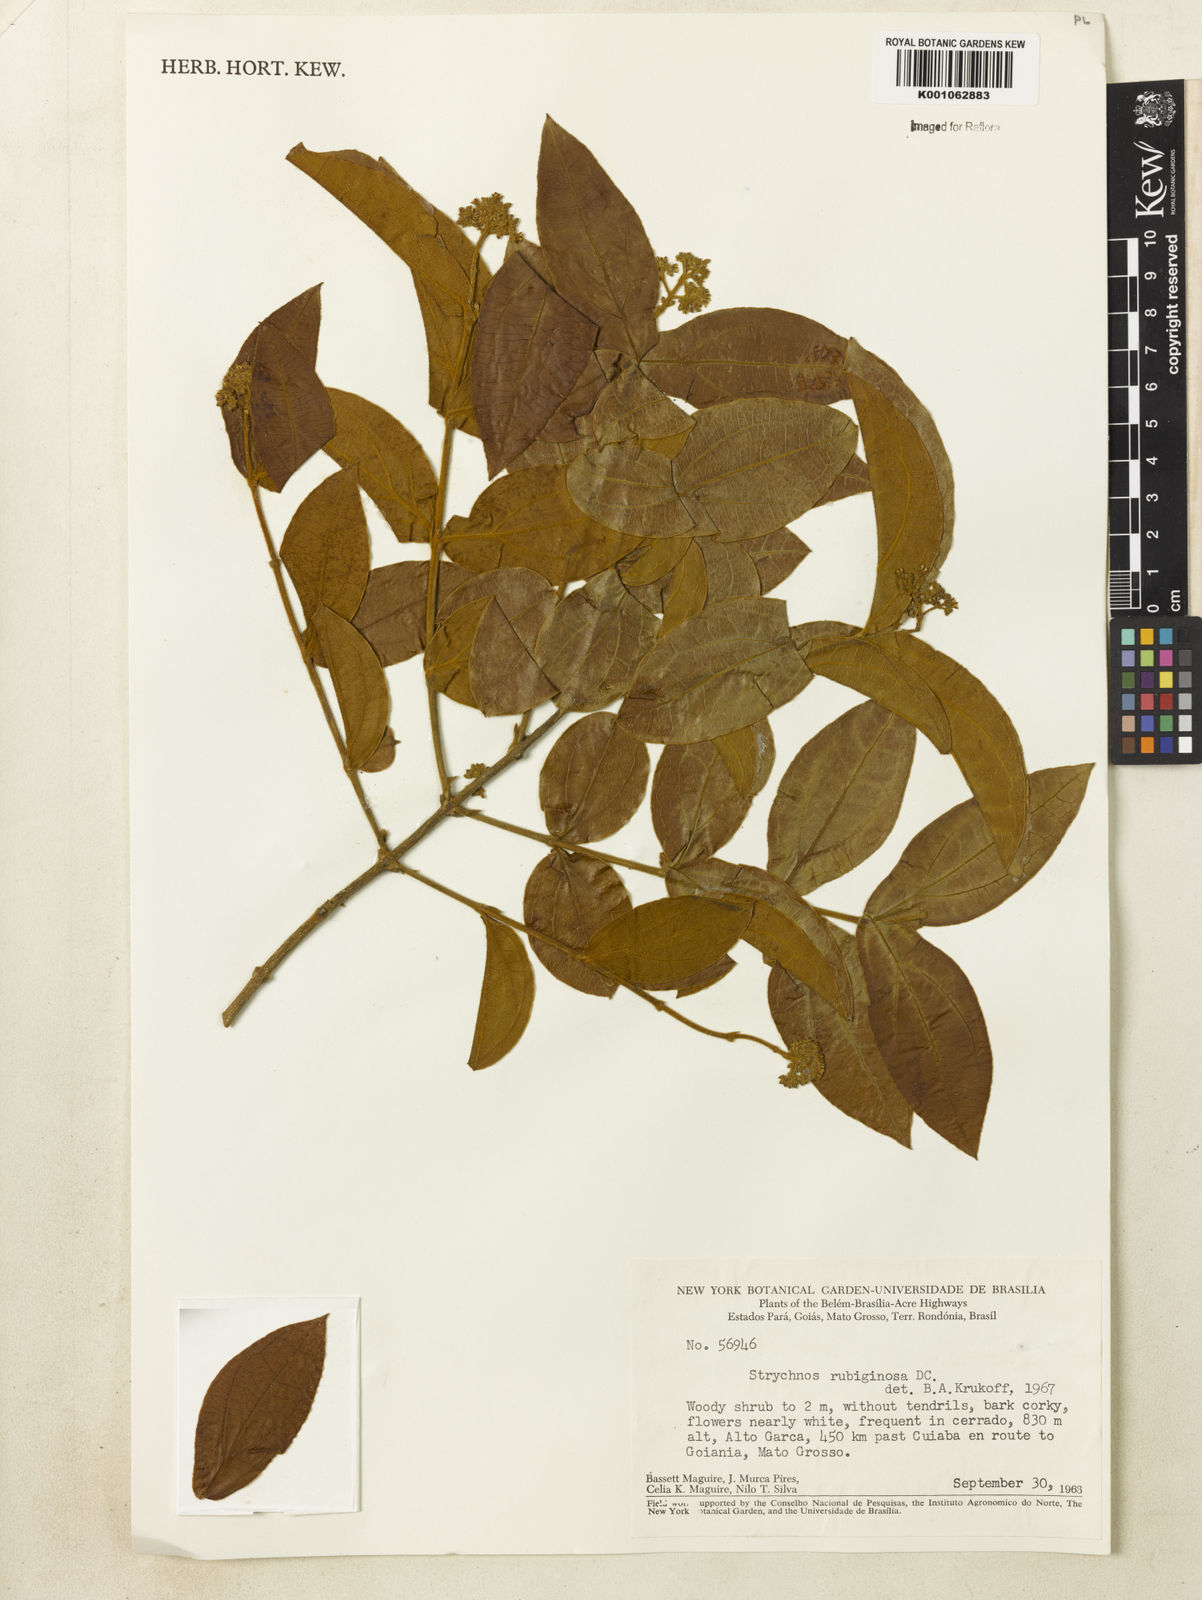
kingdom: Plantae
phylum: Tracheophyta
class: Magnoliopsida
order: Gentianales
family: Loganiaceae
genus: Strychnos
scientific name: Strychnos rubiginosa
